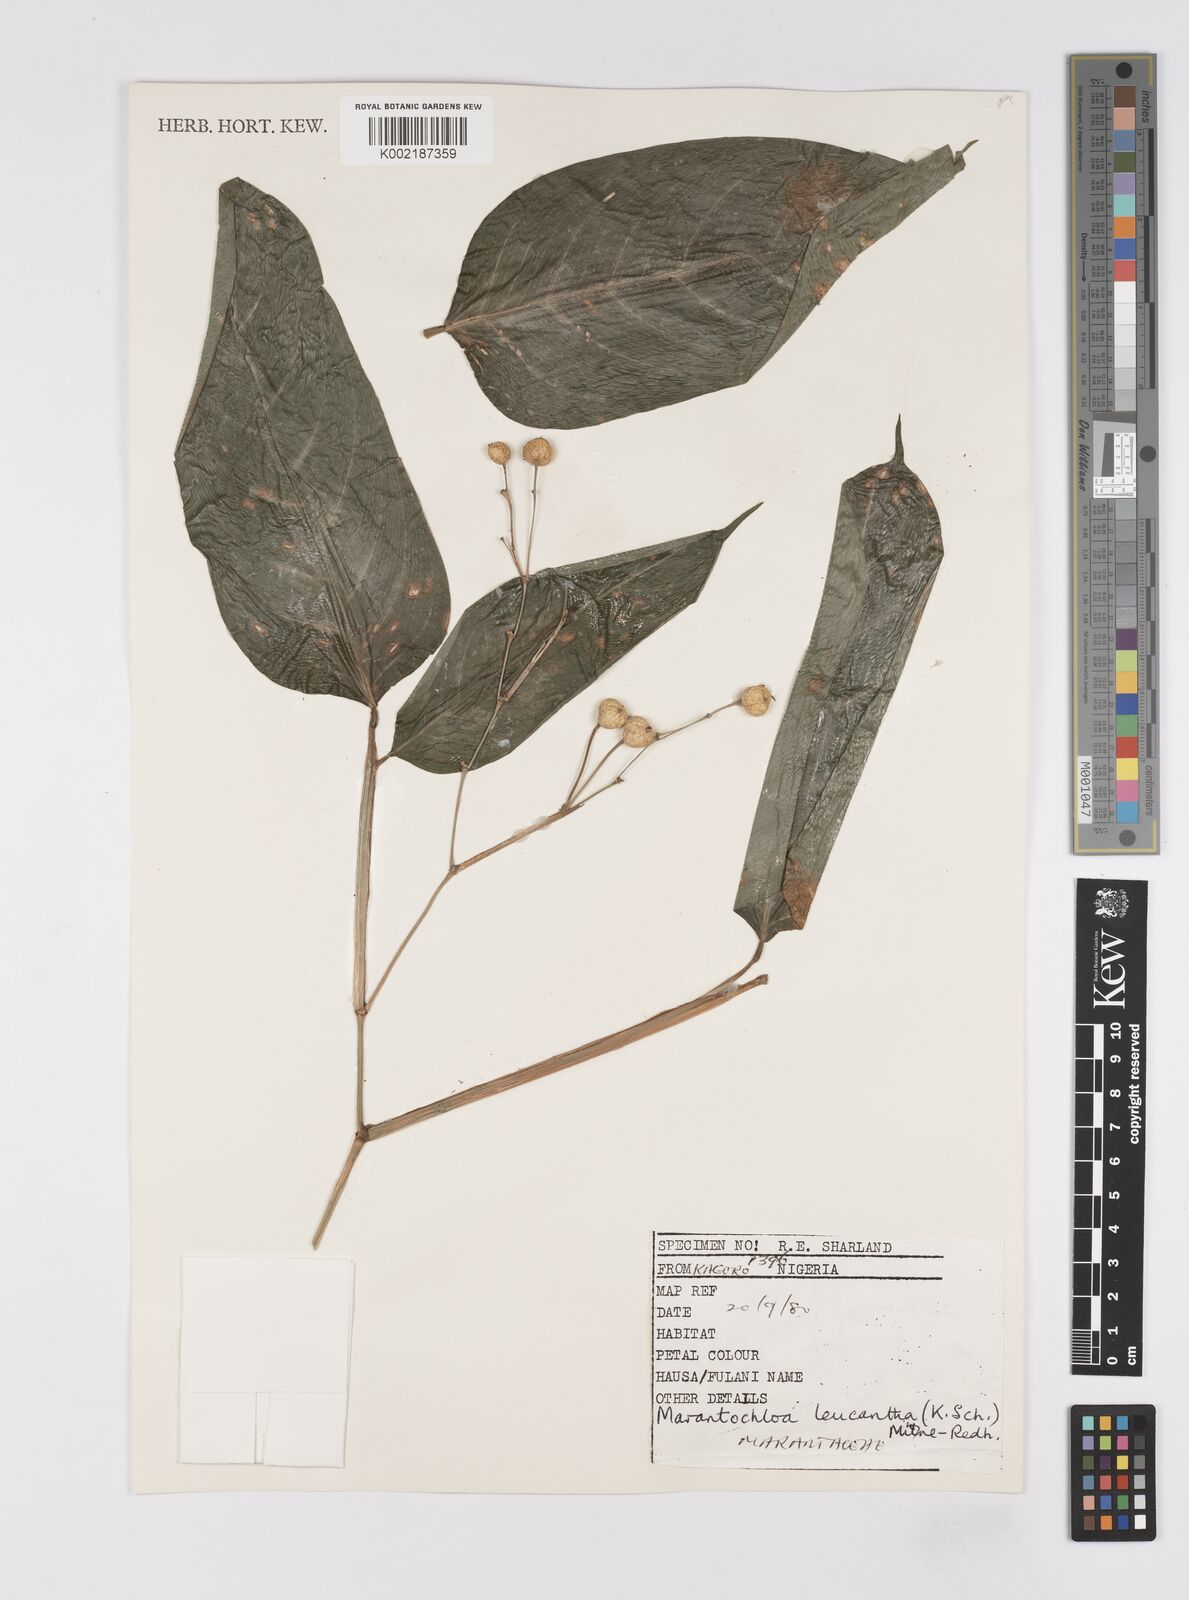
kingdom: Plantae
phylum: Tracheophyta
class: Liliopsida
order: Zingiberales
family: Marantaceae
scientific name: Marantaceae
